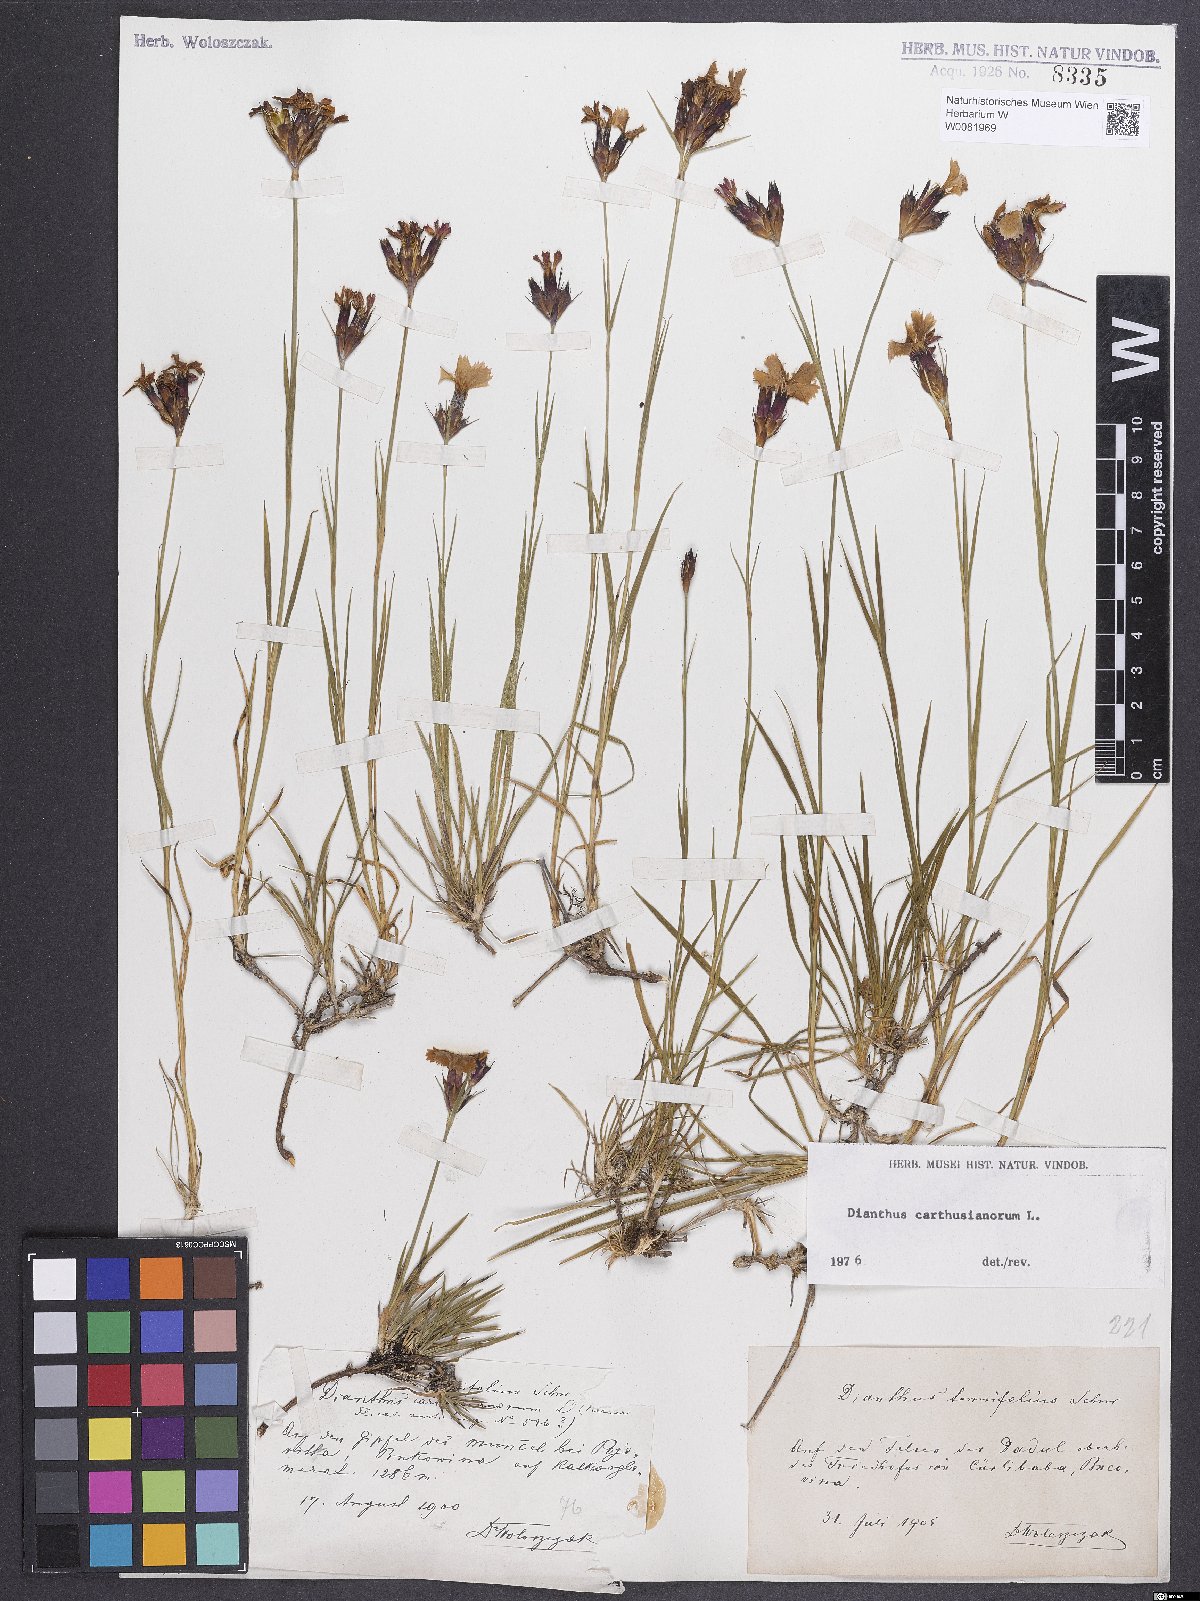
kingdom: Plantae
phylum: Tracheophyta
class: Magnoliopsida
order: Caryophyllales
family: Caryophyllaceae
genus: Dianthus
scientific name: Dianthus carthusianorum
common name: Carthusian pink
